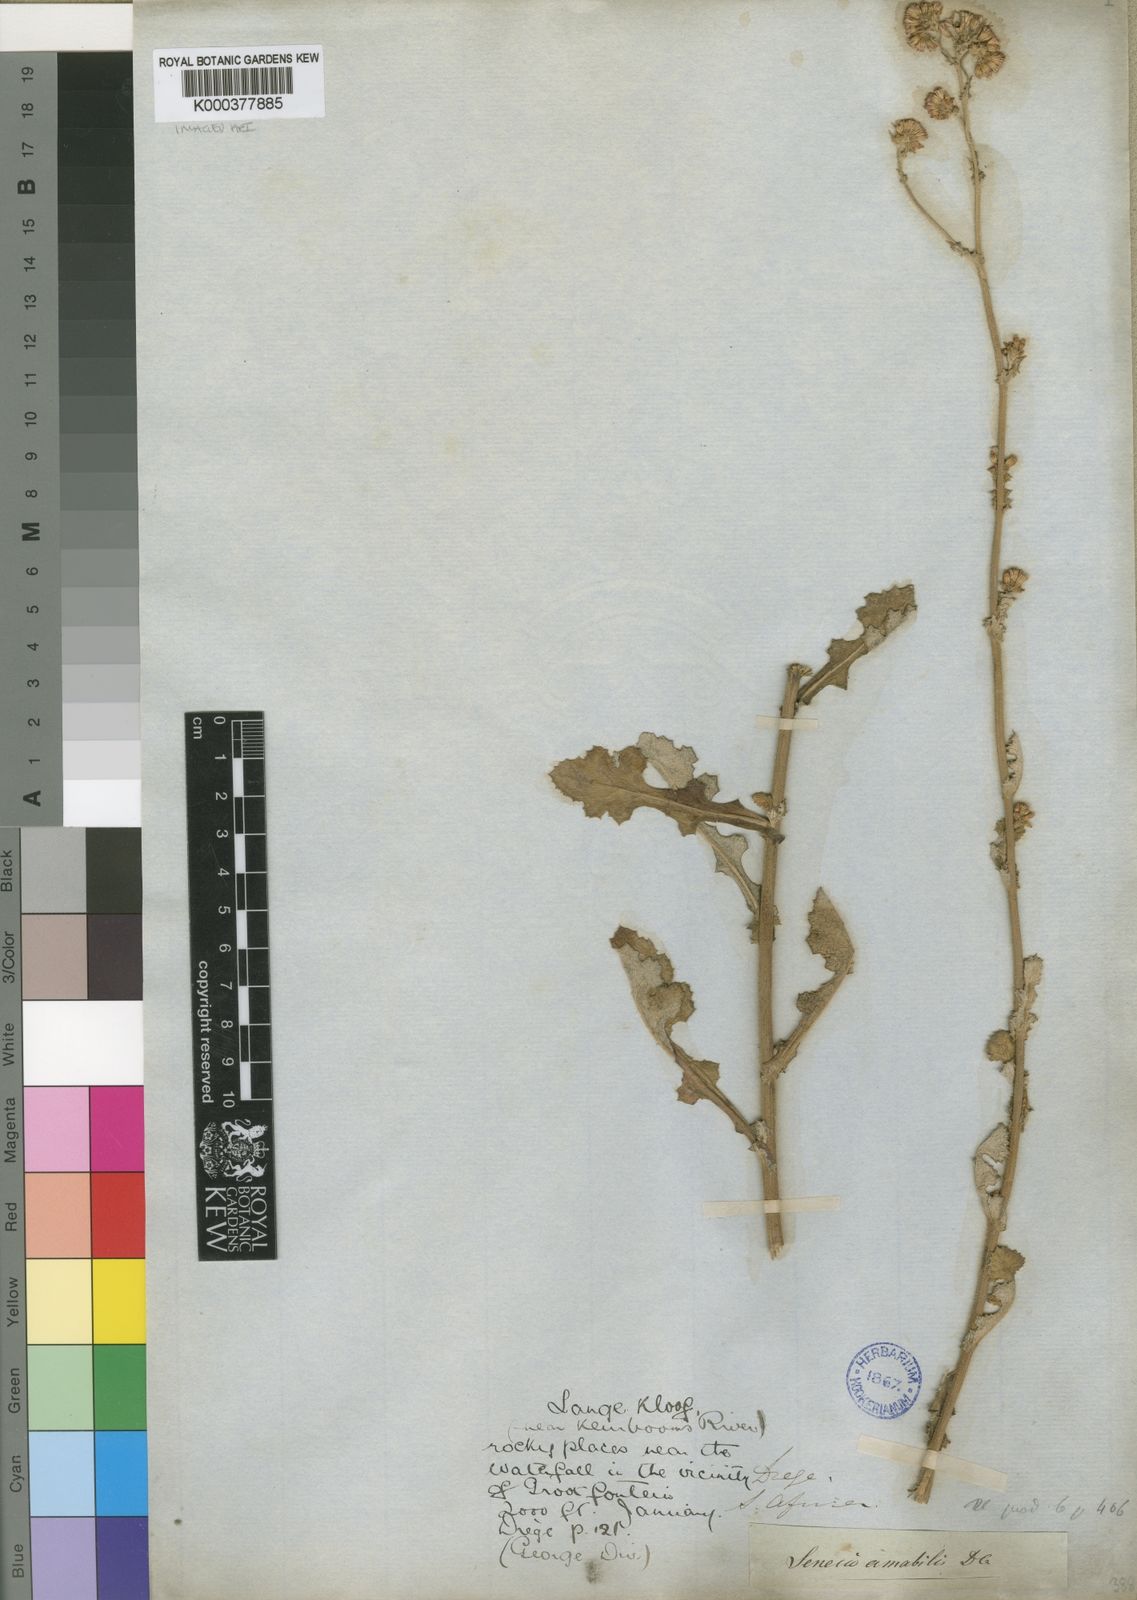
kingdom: Plantae
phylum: Tracheophyta
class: Magnoliopsida
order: Asterales
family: Asteraceae
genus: Senecio
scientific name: Senecio agapetes
